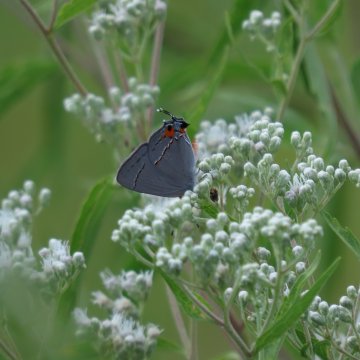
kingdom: Animalia
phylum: Arthropoda
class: Insecta
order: Lepidoptera
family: Lycaenidae
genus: Strymon
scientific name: Strymon melinus
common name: Gray Hairstreak
